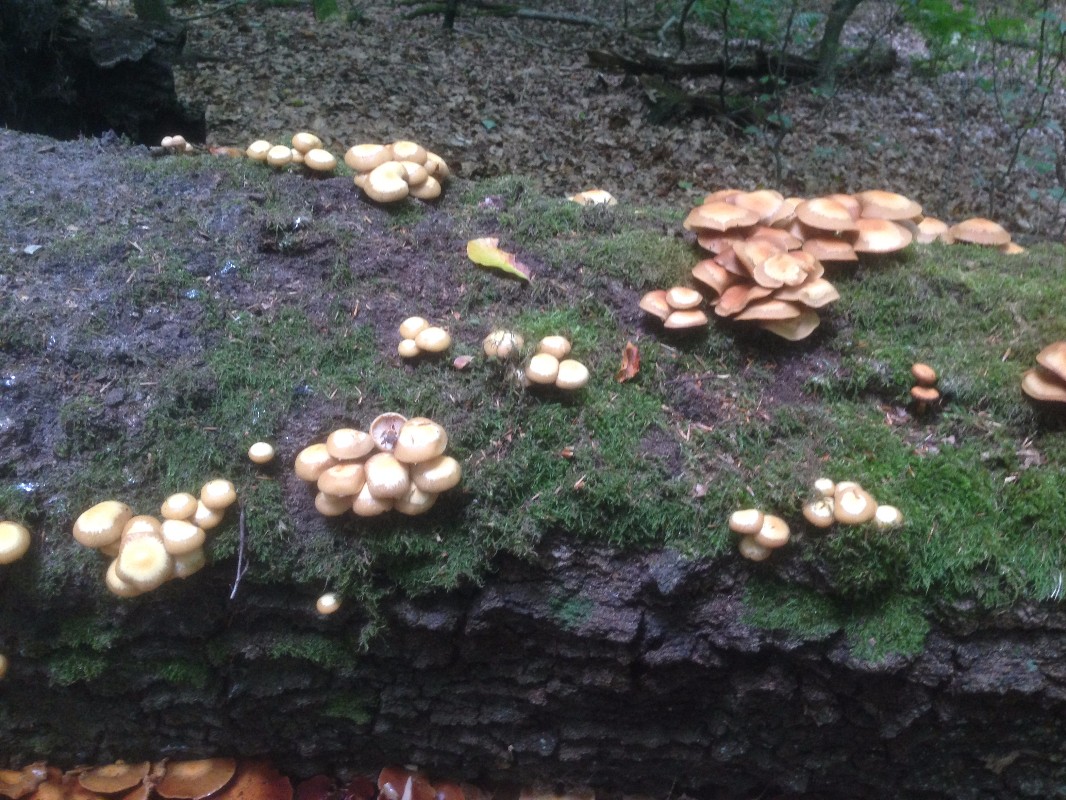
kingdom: Fungi
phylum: Basidiomycota
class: Agaricomycetes
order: Agaricales
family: Strophariaceae
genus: Kuehneromyces
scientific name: Kuehneromyces mutabilis
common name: foranderlig skælhat
